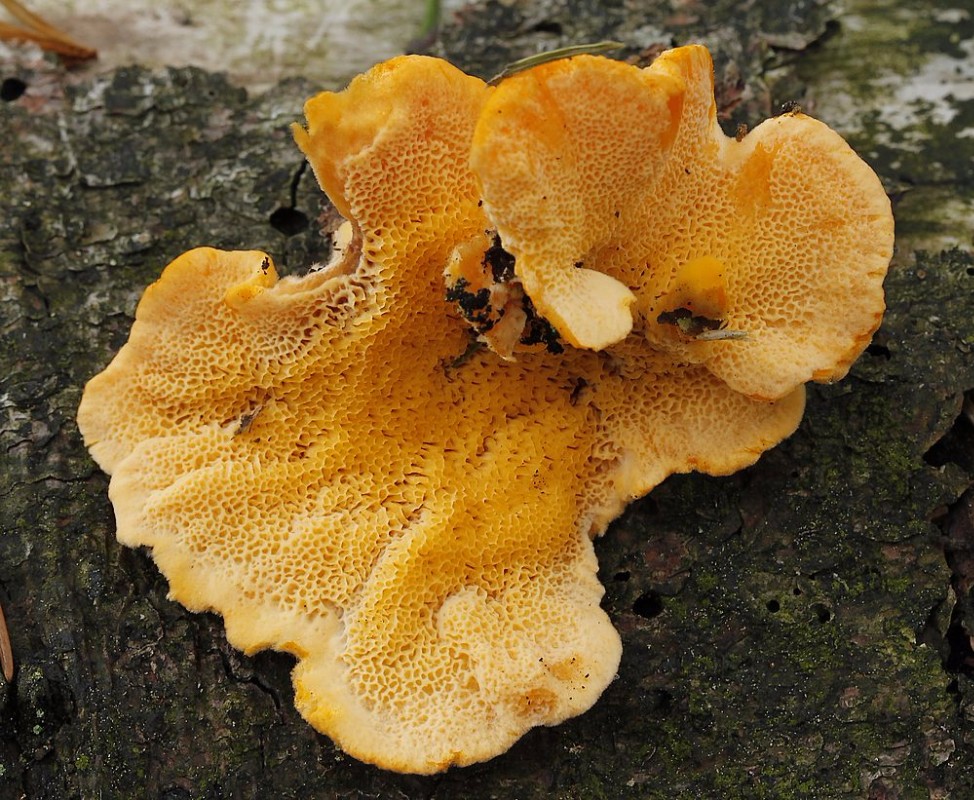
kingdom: Fungi
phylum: Basidiomycota
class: Agaricomycetes
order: Polyporales
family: Pycnoporellaceae
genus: Pycnoporellus
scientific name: Pycnoporellus fulgens
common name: flammeporesvamp
